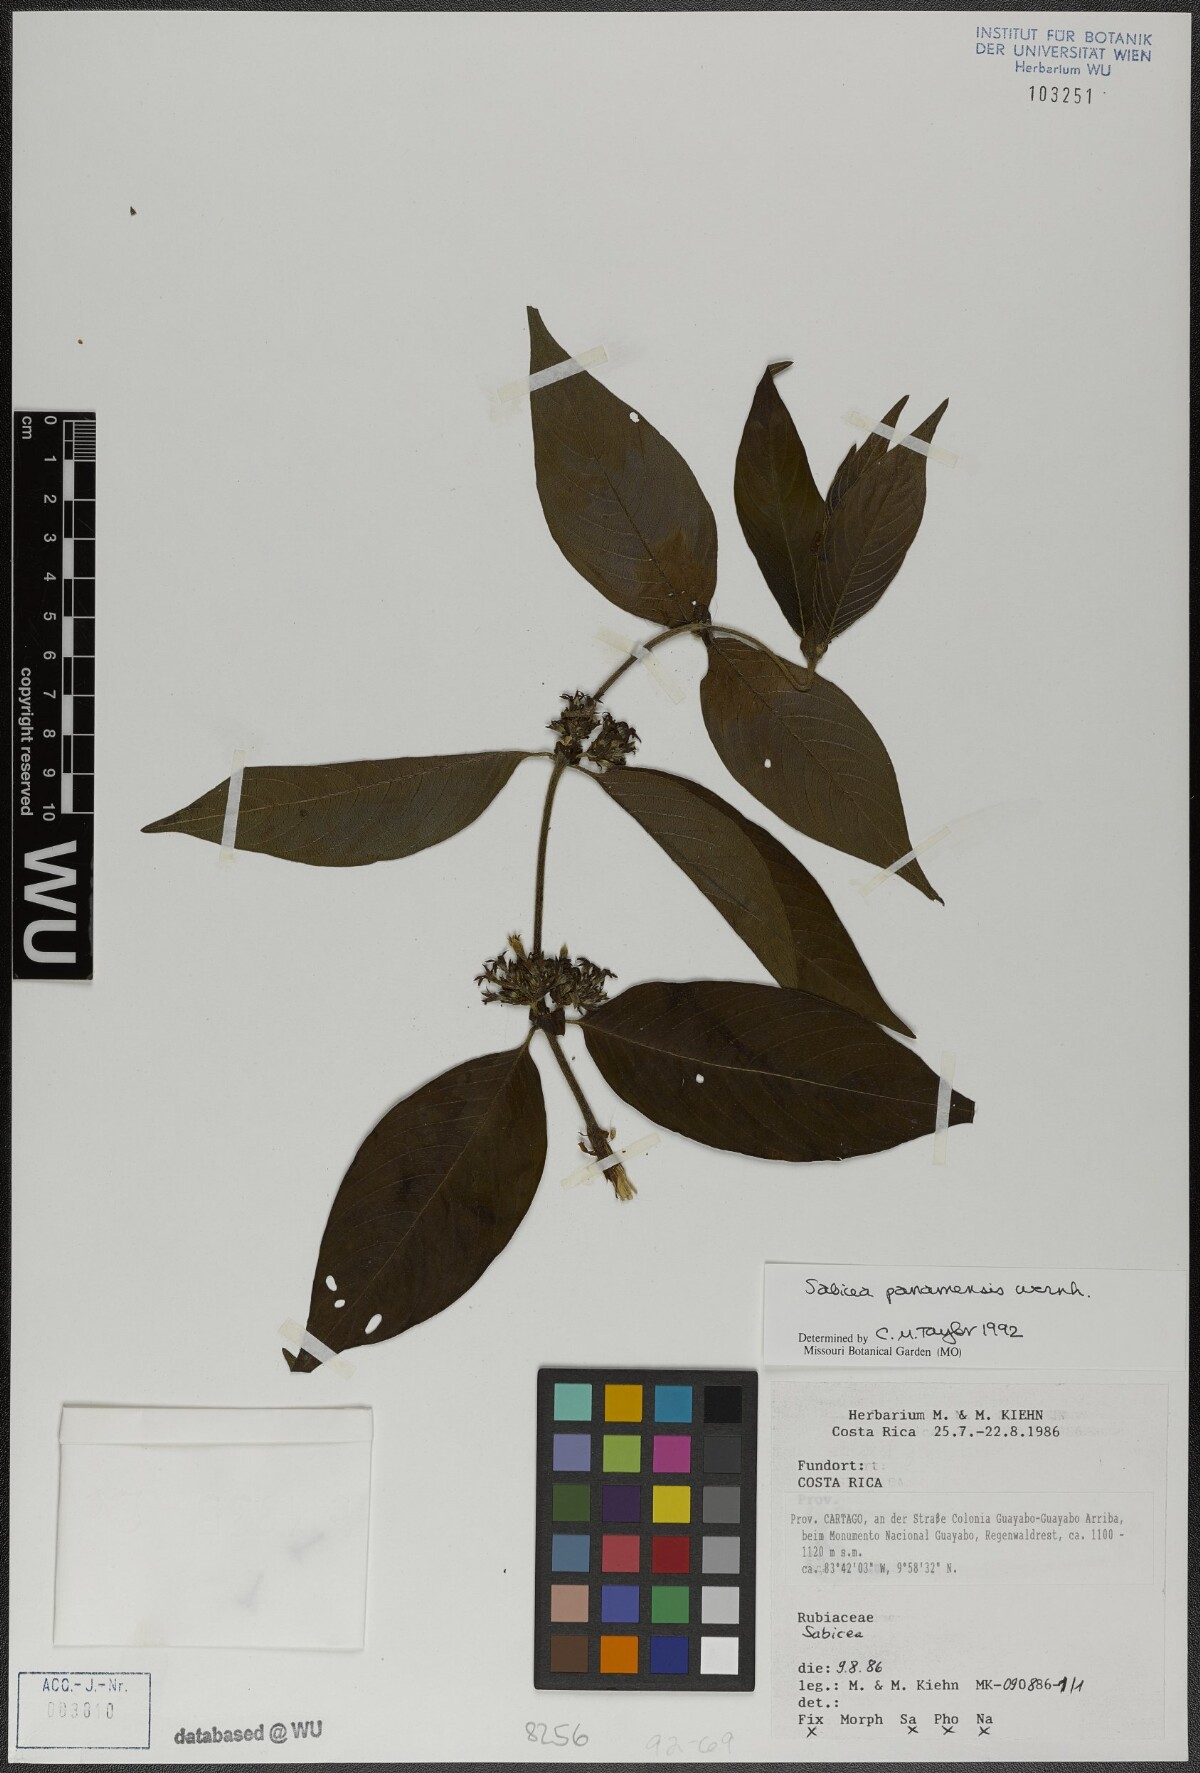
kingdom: Plantae
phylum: Tracheophyta
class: Magnoliopsida
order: Gentianales
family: Rubiaceae
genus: Sabicea
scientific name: Sabicea panamensis
